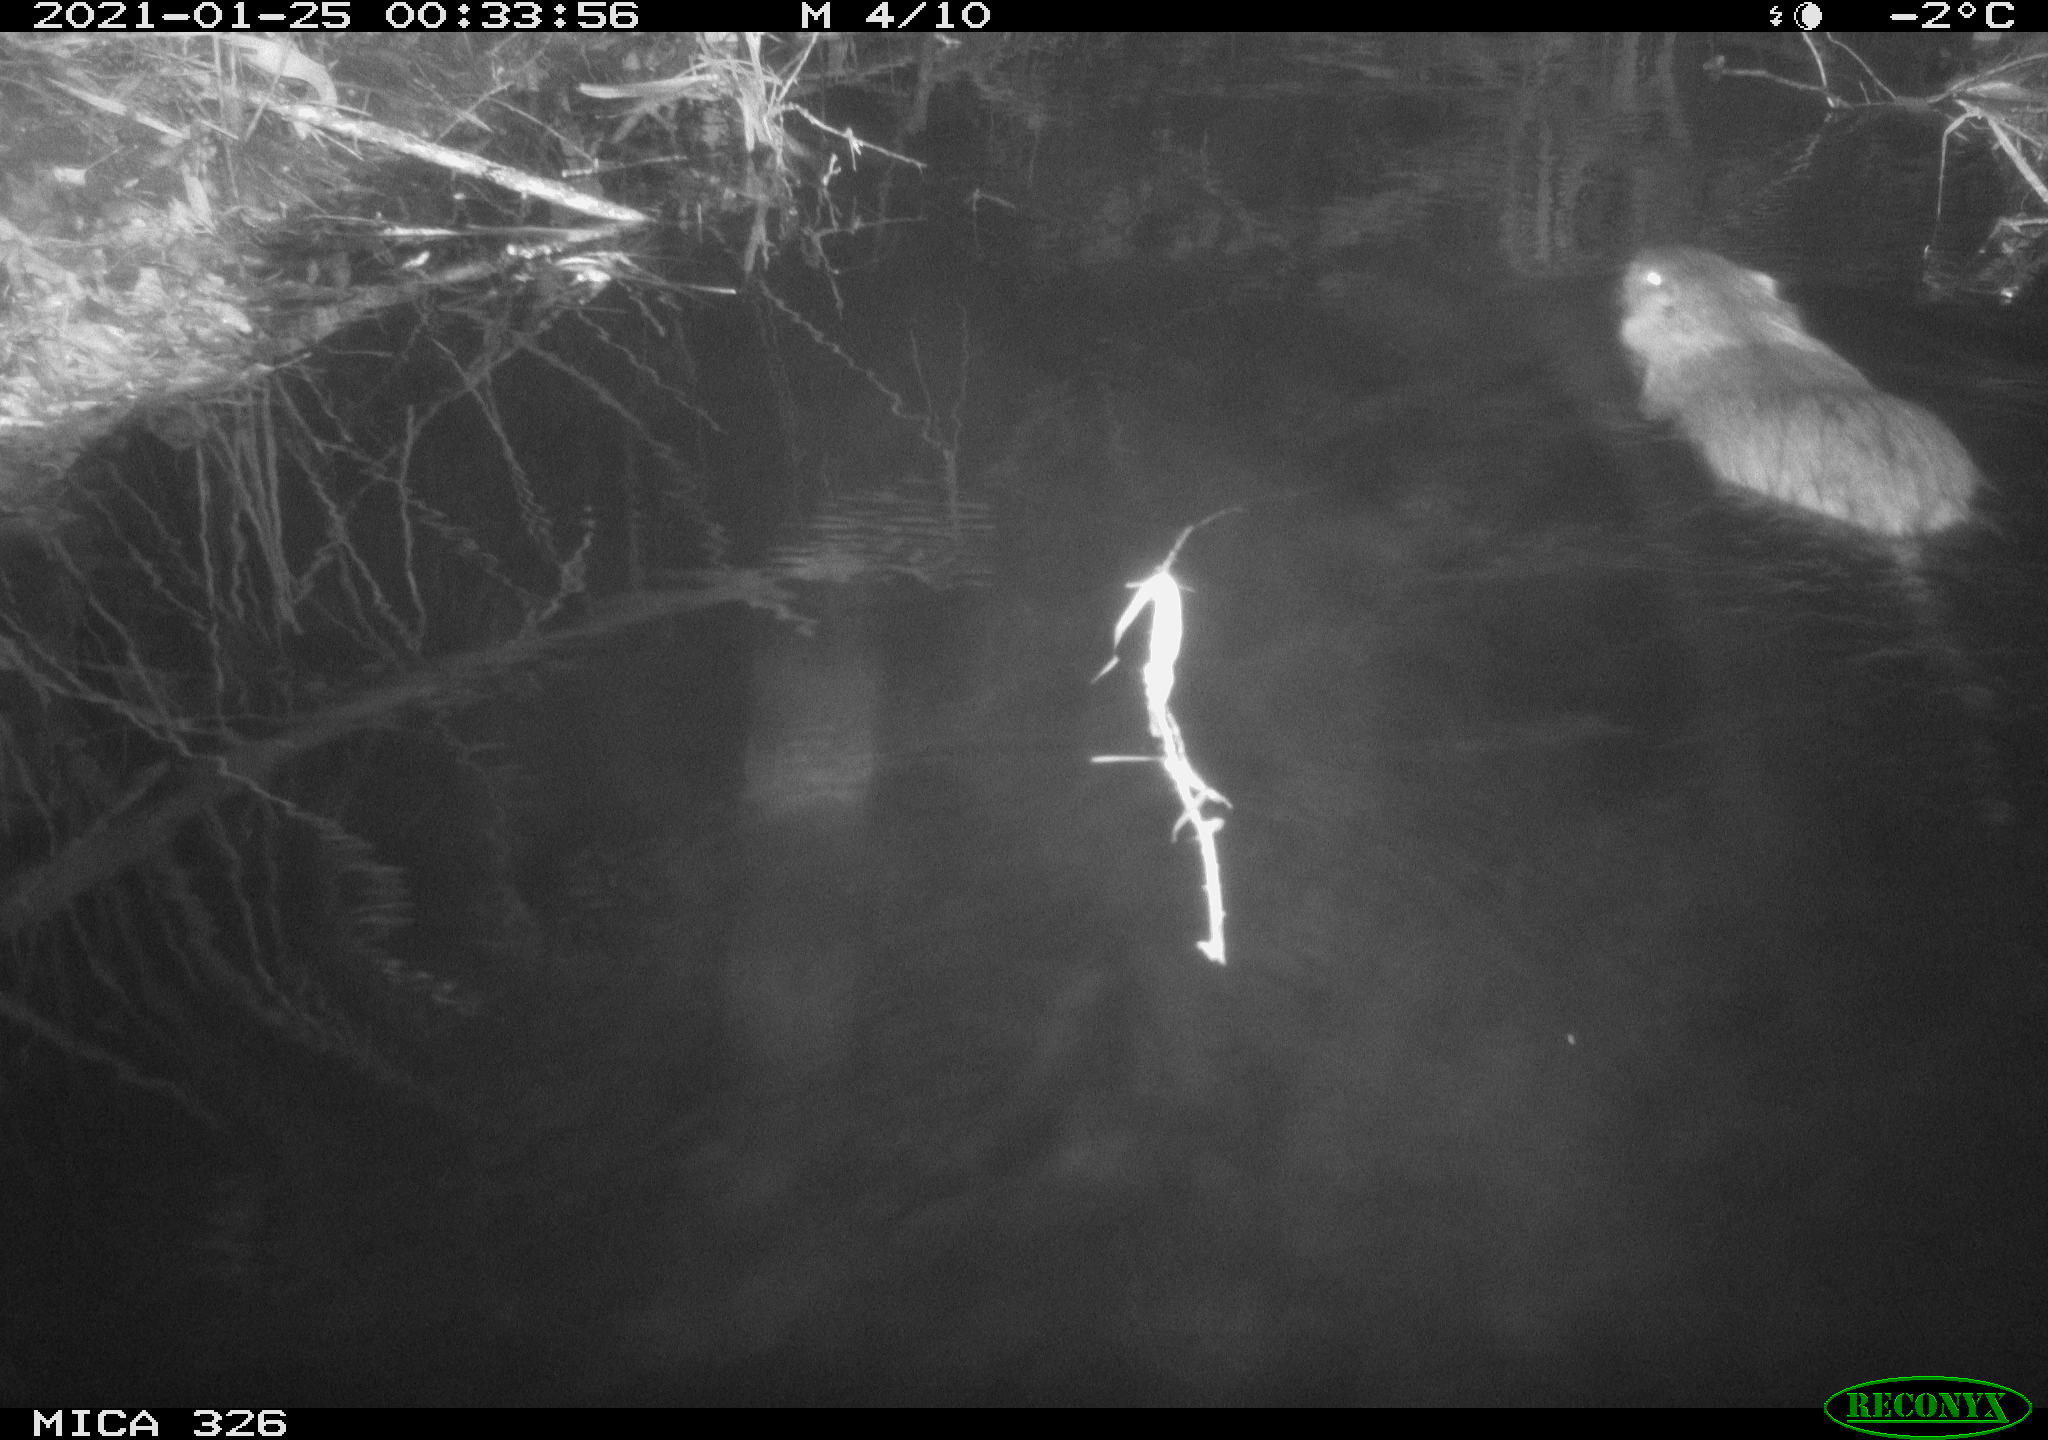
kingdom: Animalia
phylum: Chordata
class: Mammalia
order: Rodentia
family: Myocastoridae
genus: Myocastor
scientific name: Myocastor coypus
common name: Coypu
